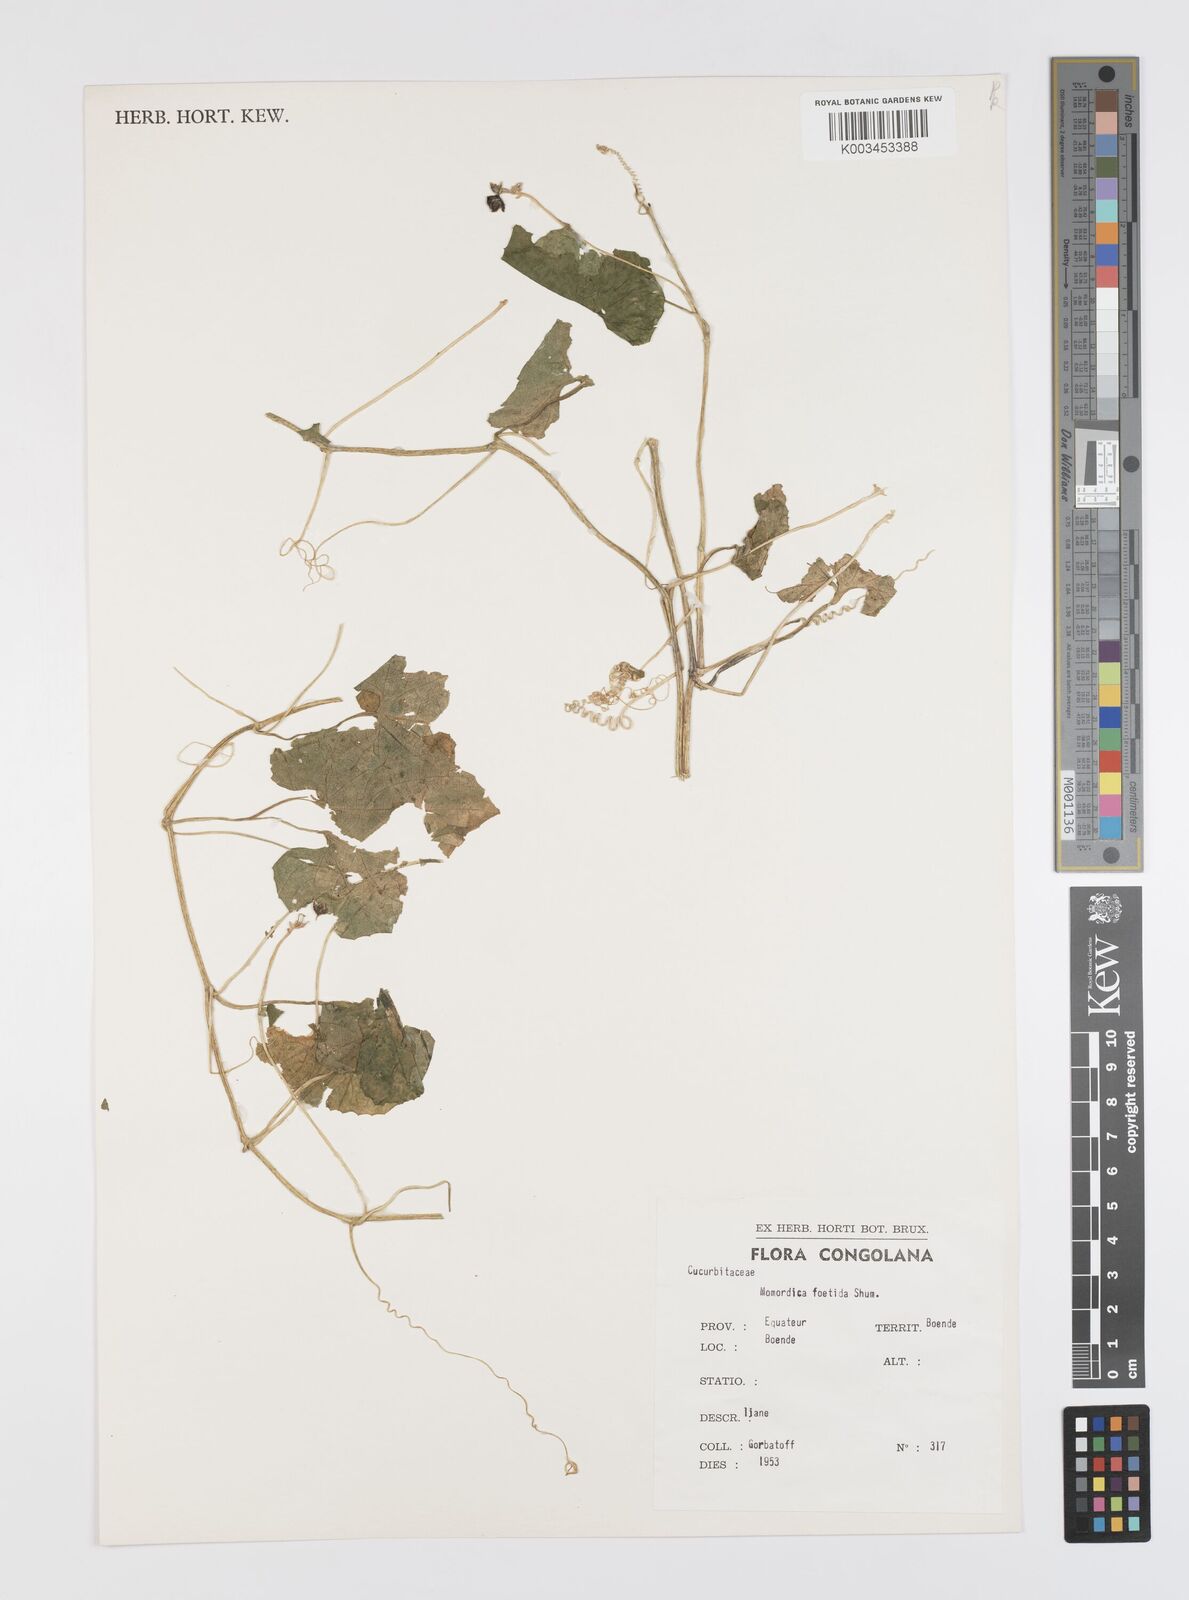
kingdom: Plantae
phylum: Tracheophyta
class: Magnoliopsida
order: Cucurbitales
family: Cucurbitaceae
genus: Momordica
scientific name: Momordica foetida
